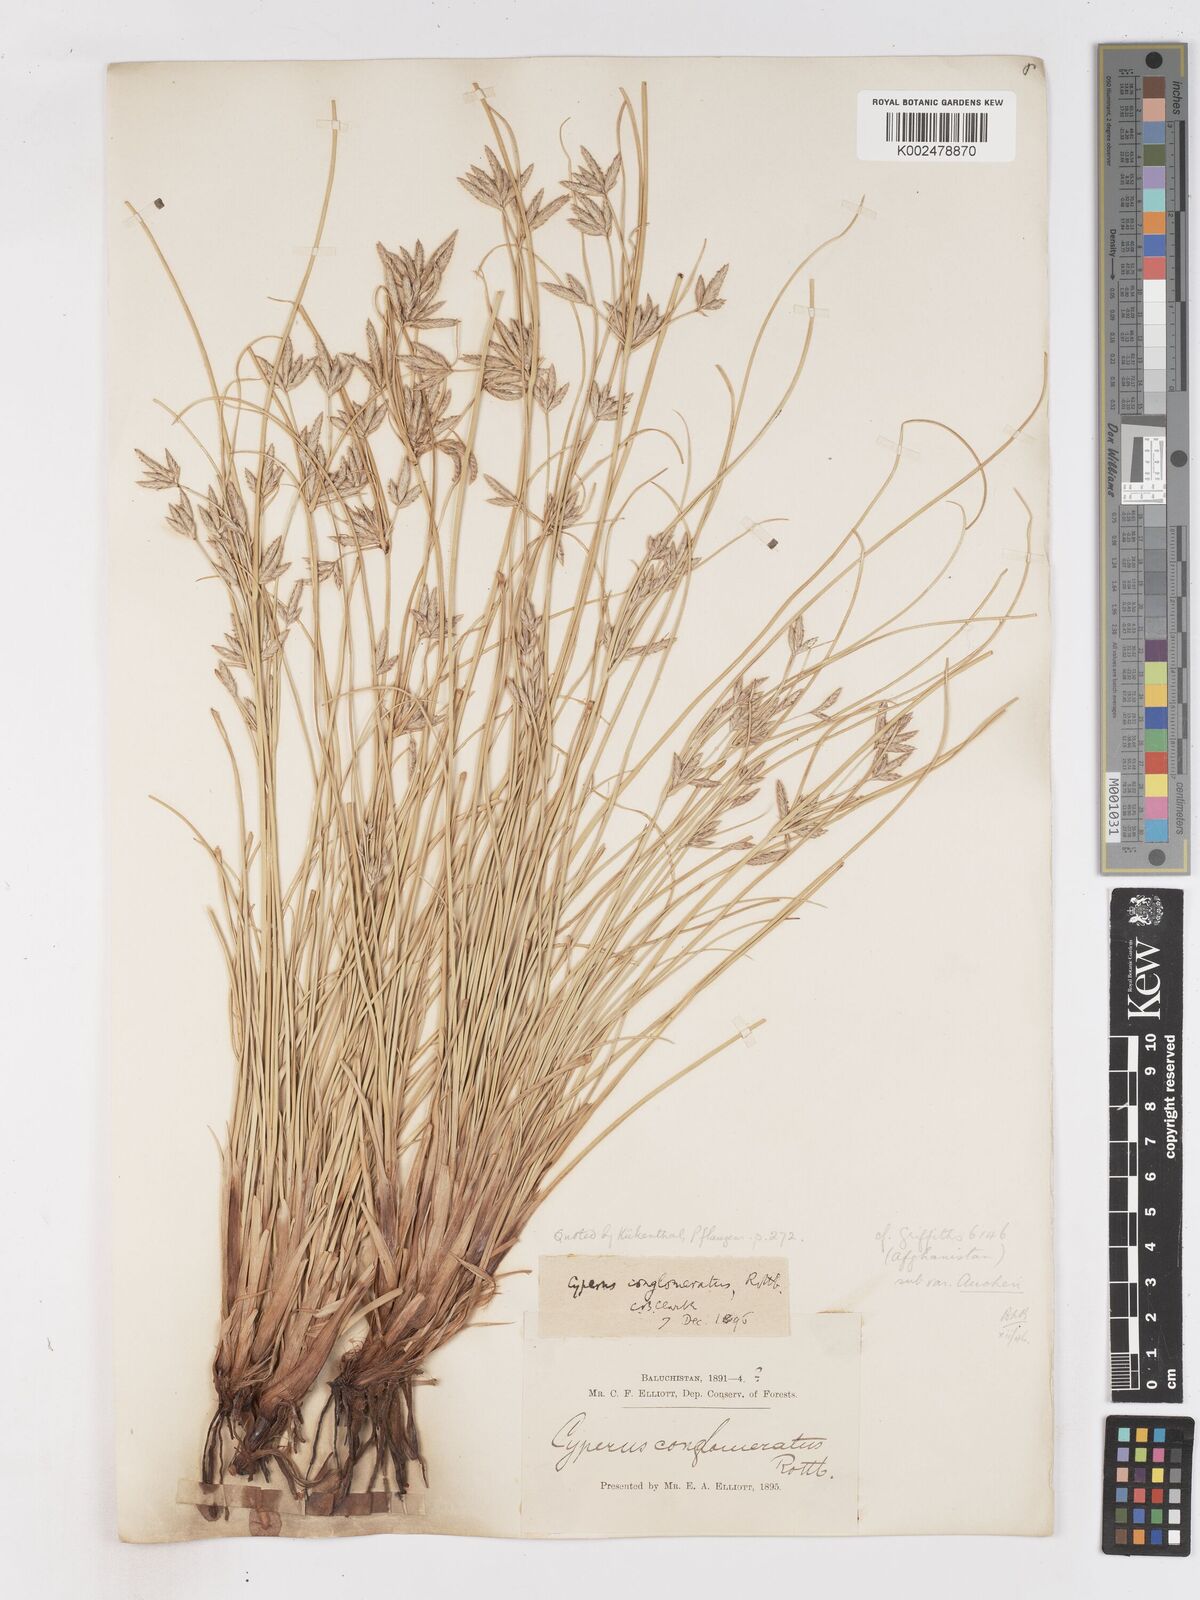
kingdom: Plantae
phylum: Tracheophyta
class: Liliopsida
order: Poales
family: Cyperaceae
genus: Cyperus
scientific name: Cyperus aucheri
